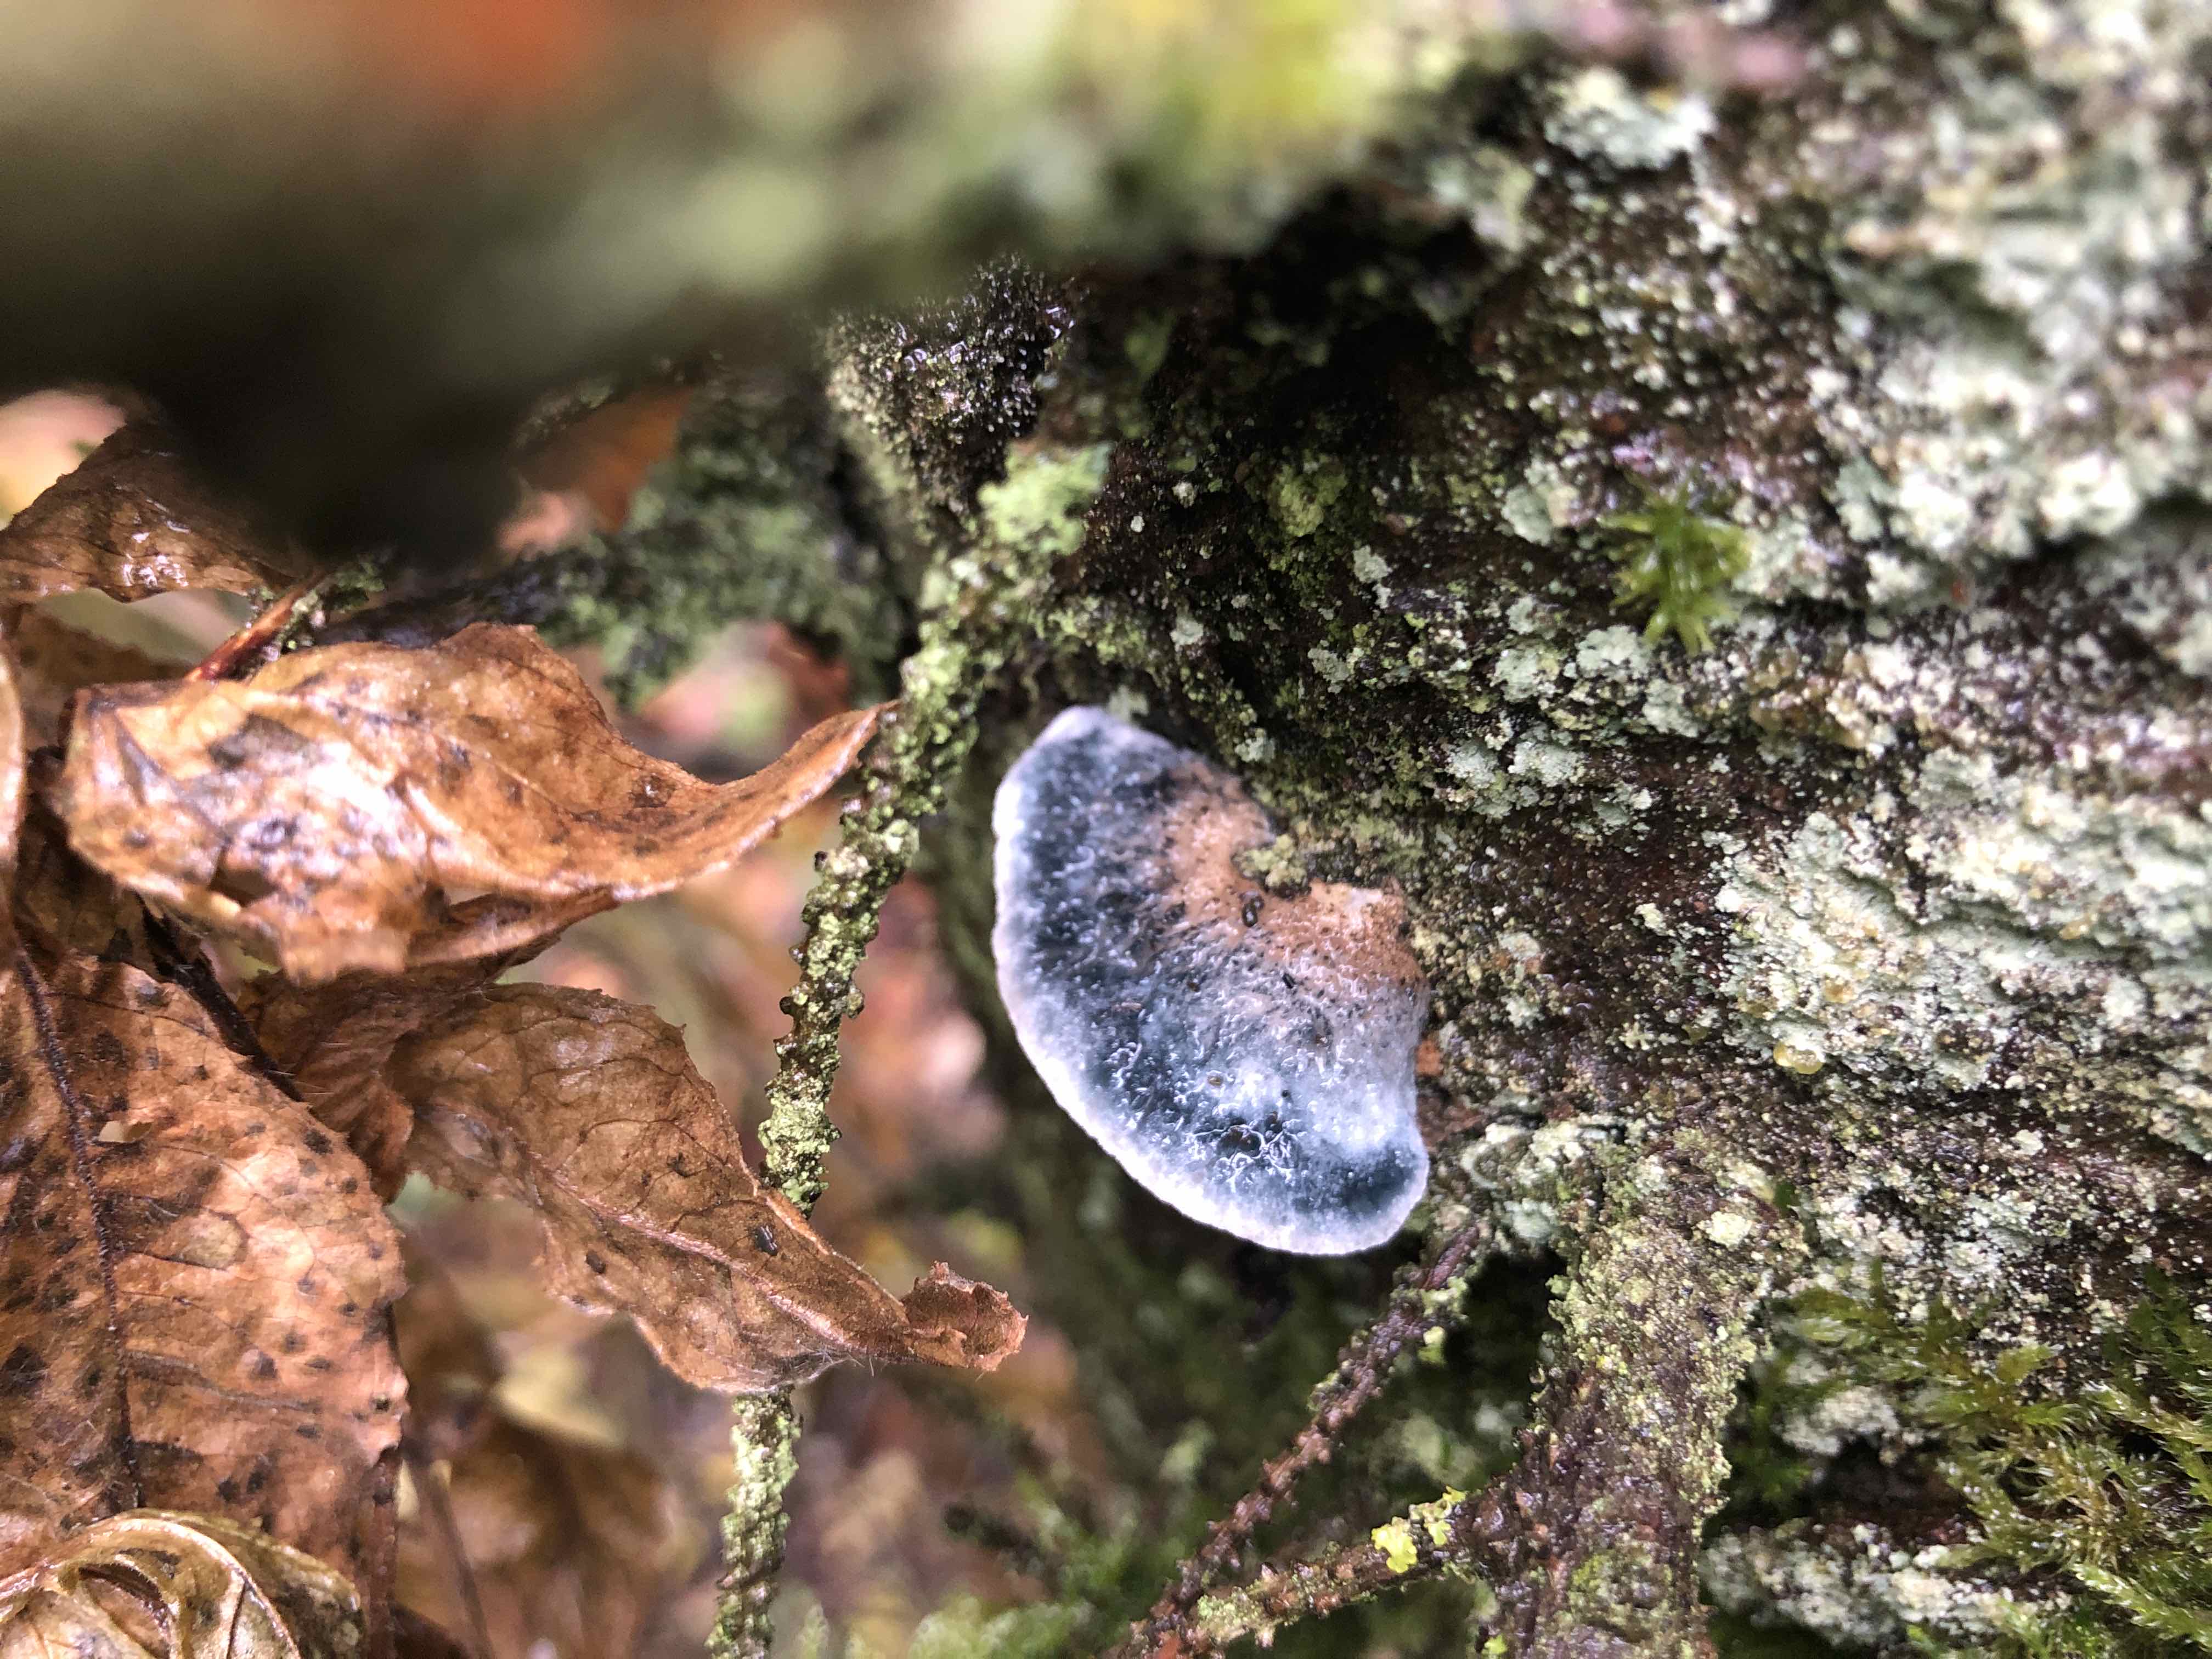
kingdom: Fungi
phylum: Basidiomycota
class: Agaricomycetes
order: Polyporales
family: Polyporaceae
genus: Cyanosporus
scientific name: Cyanosporus caesius
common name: blålig kødporesvamp
